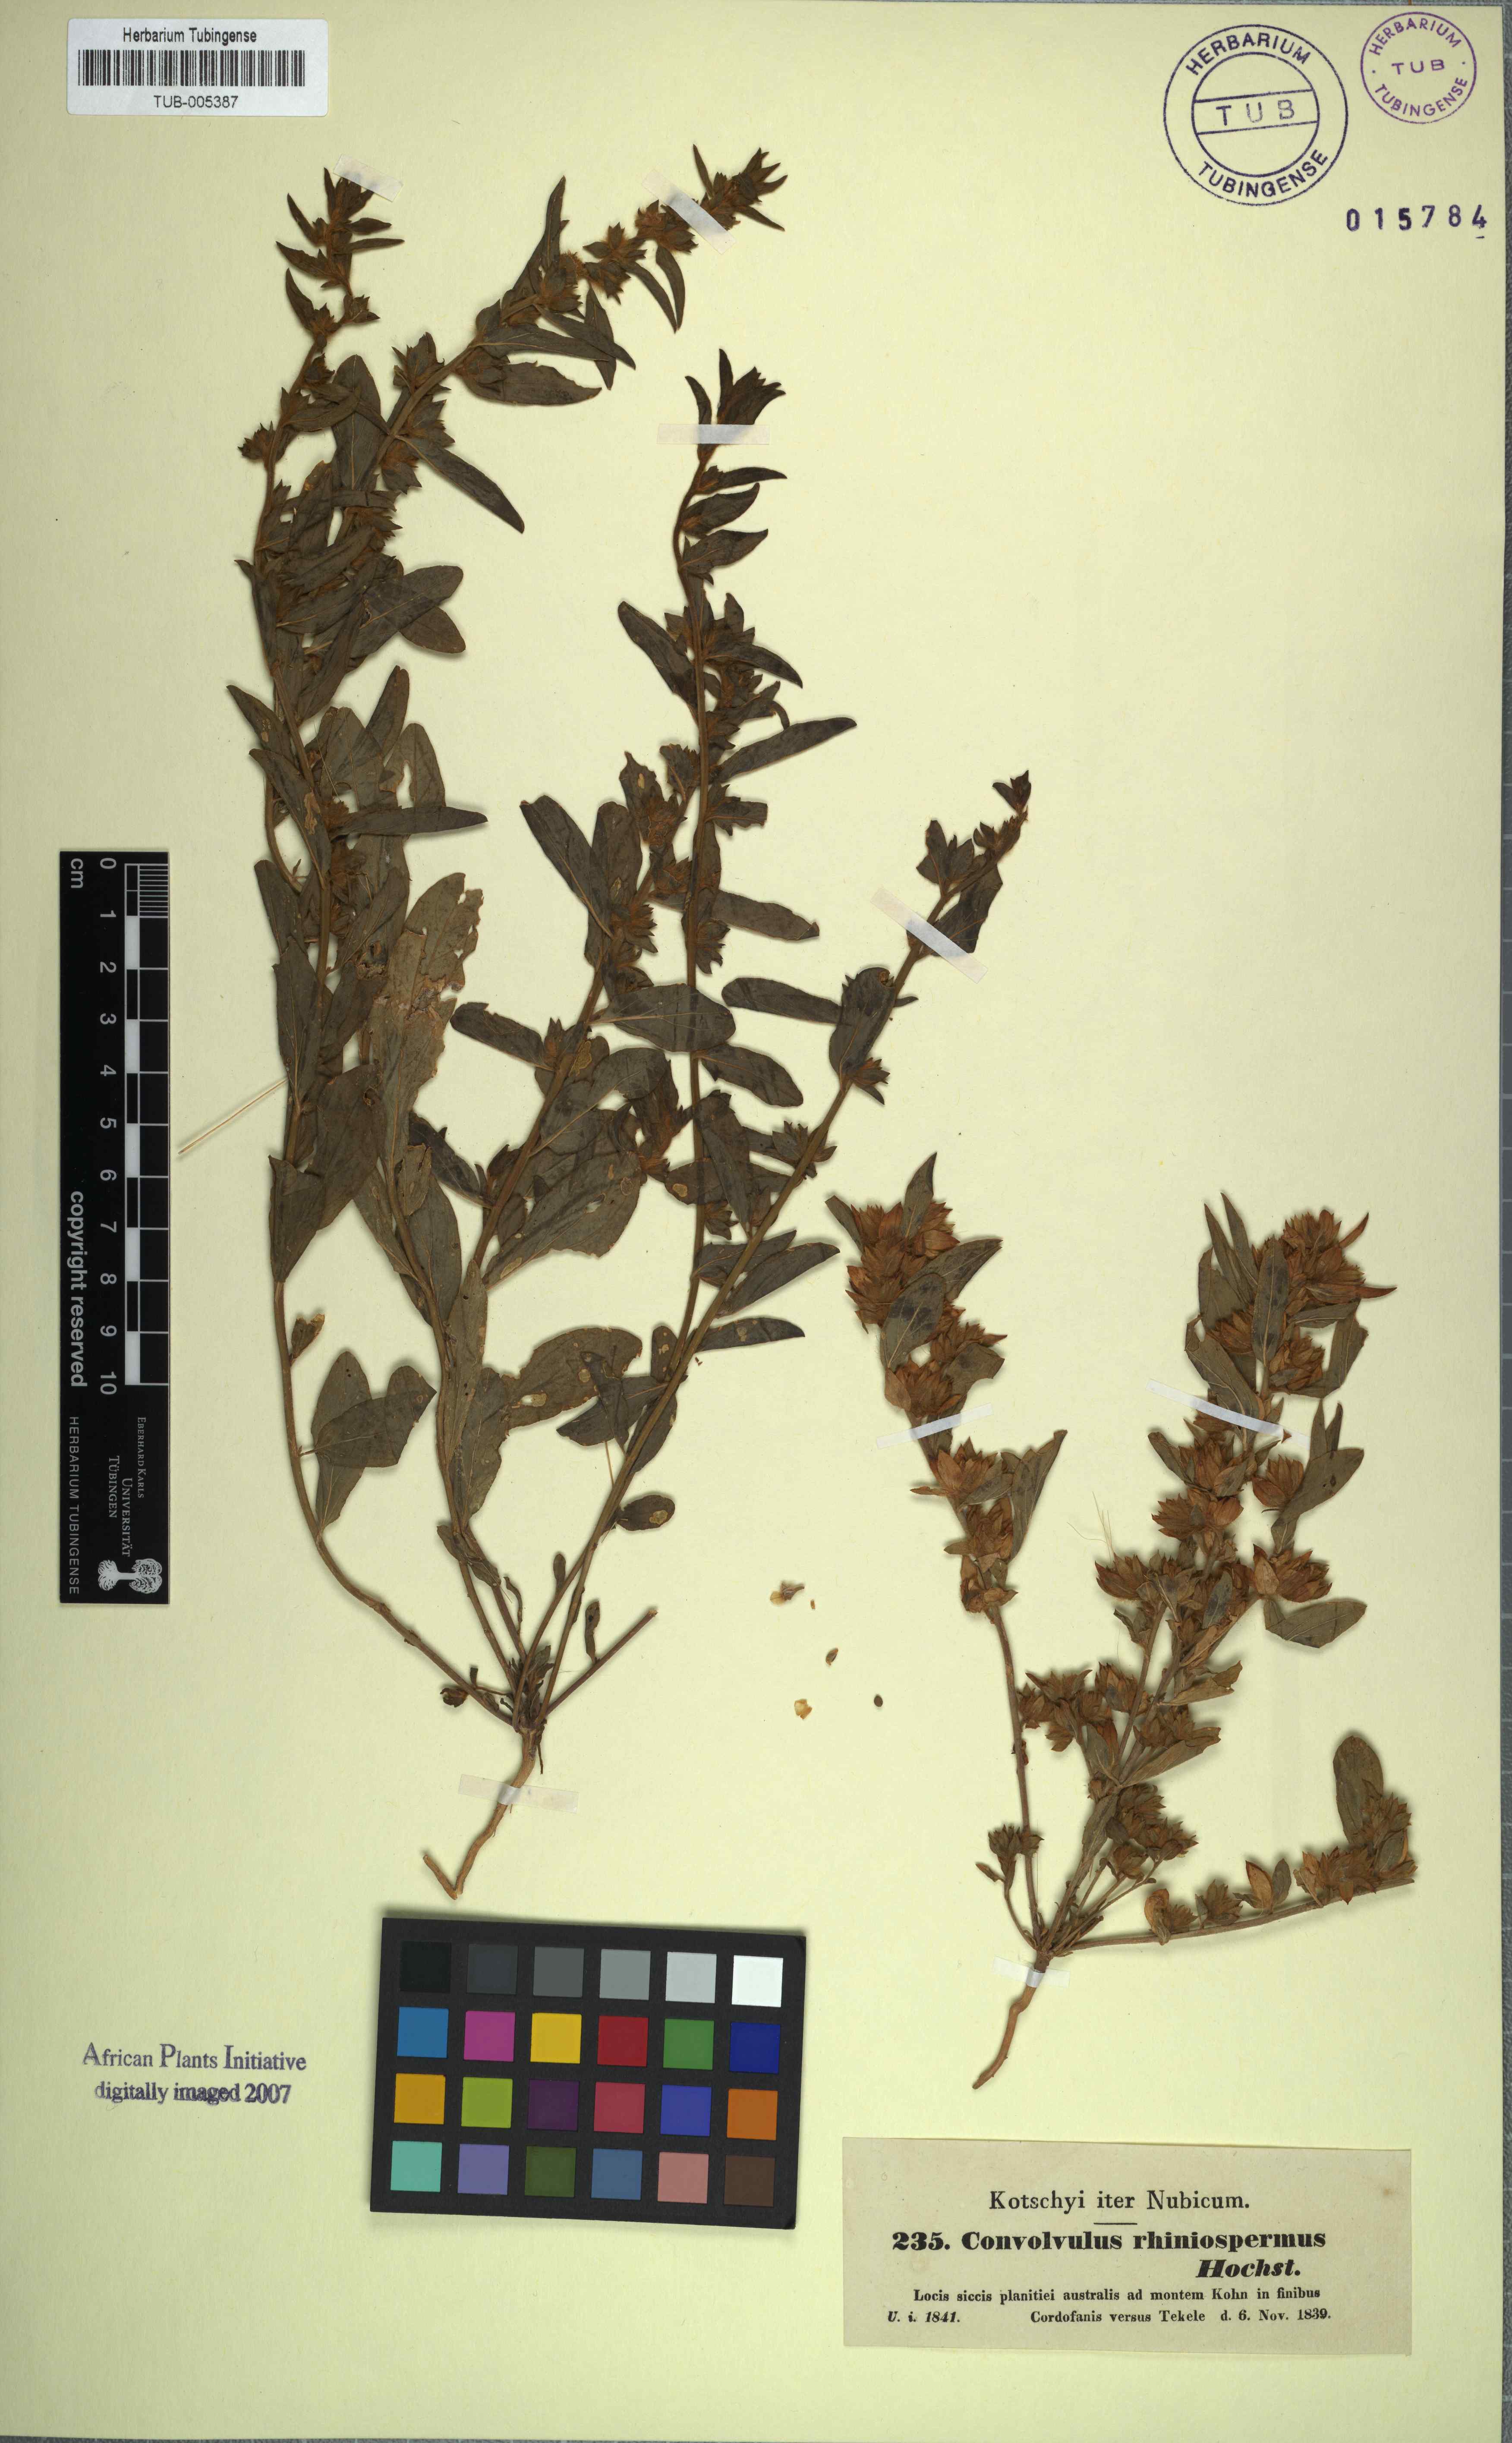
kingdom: Plantae
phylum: Tracheophyta
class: Magnoliopsida
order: Solanales
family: Convolvulaceae
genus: Convolvulus
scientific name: Convolvulus rhyniospermus
